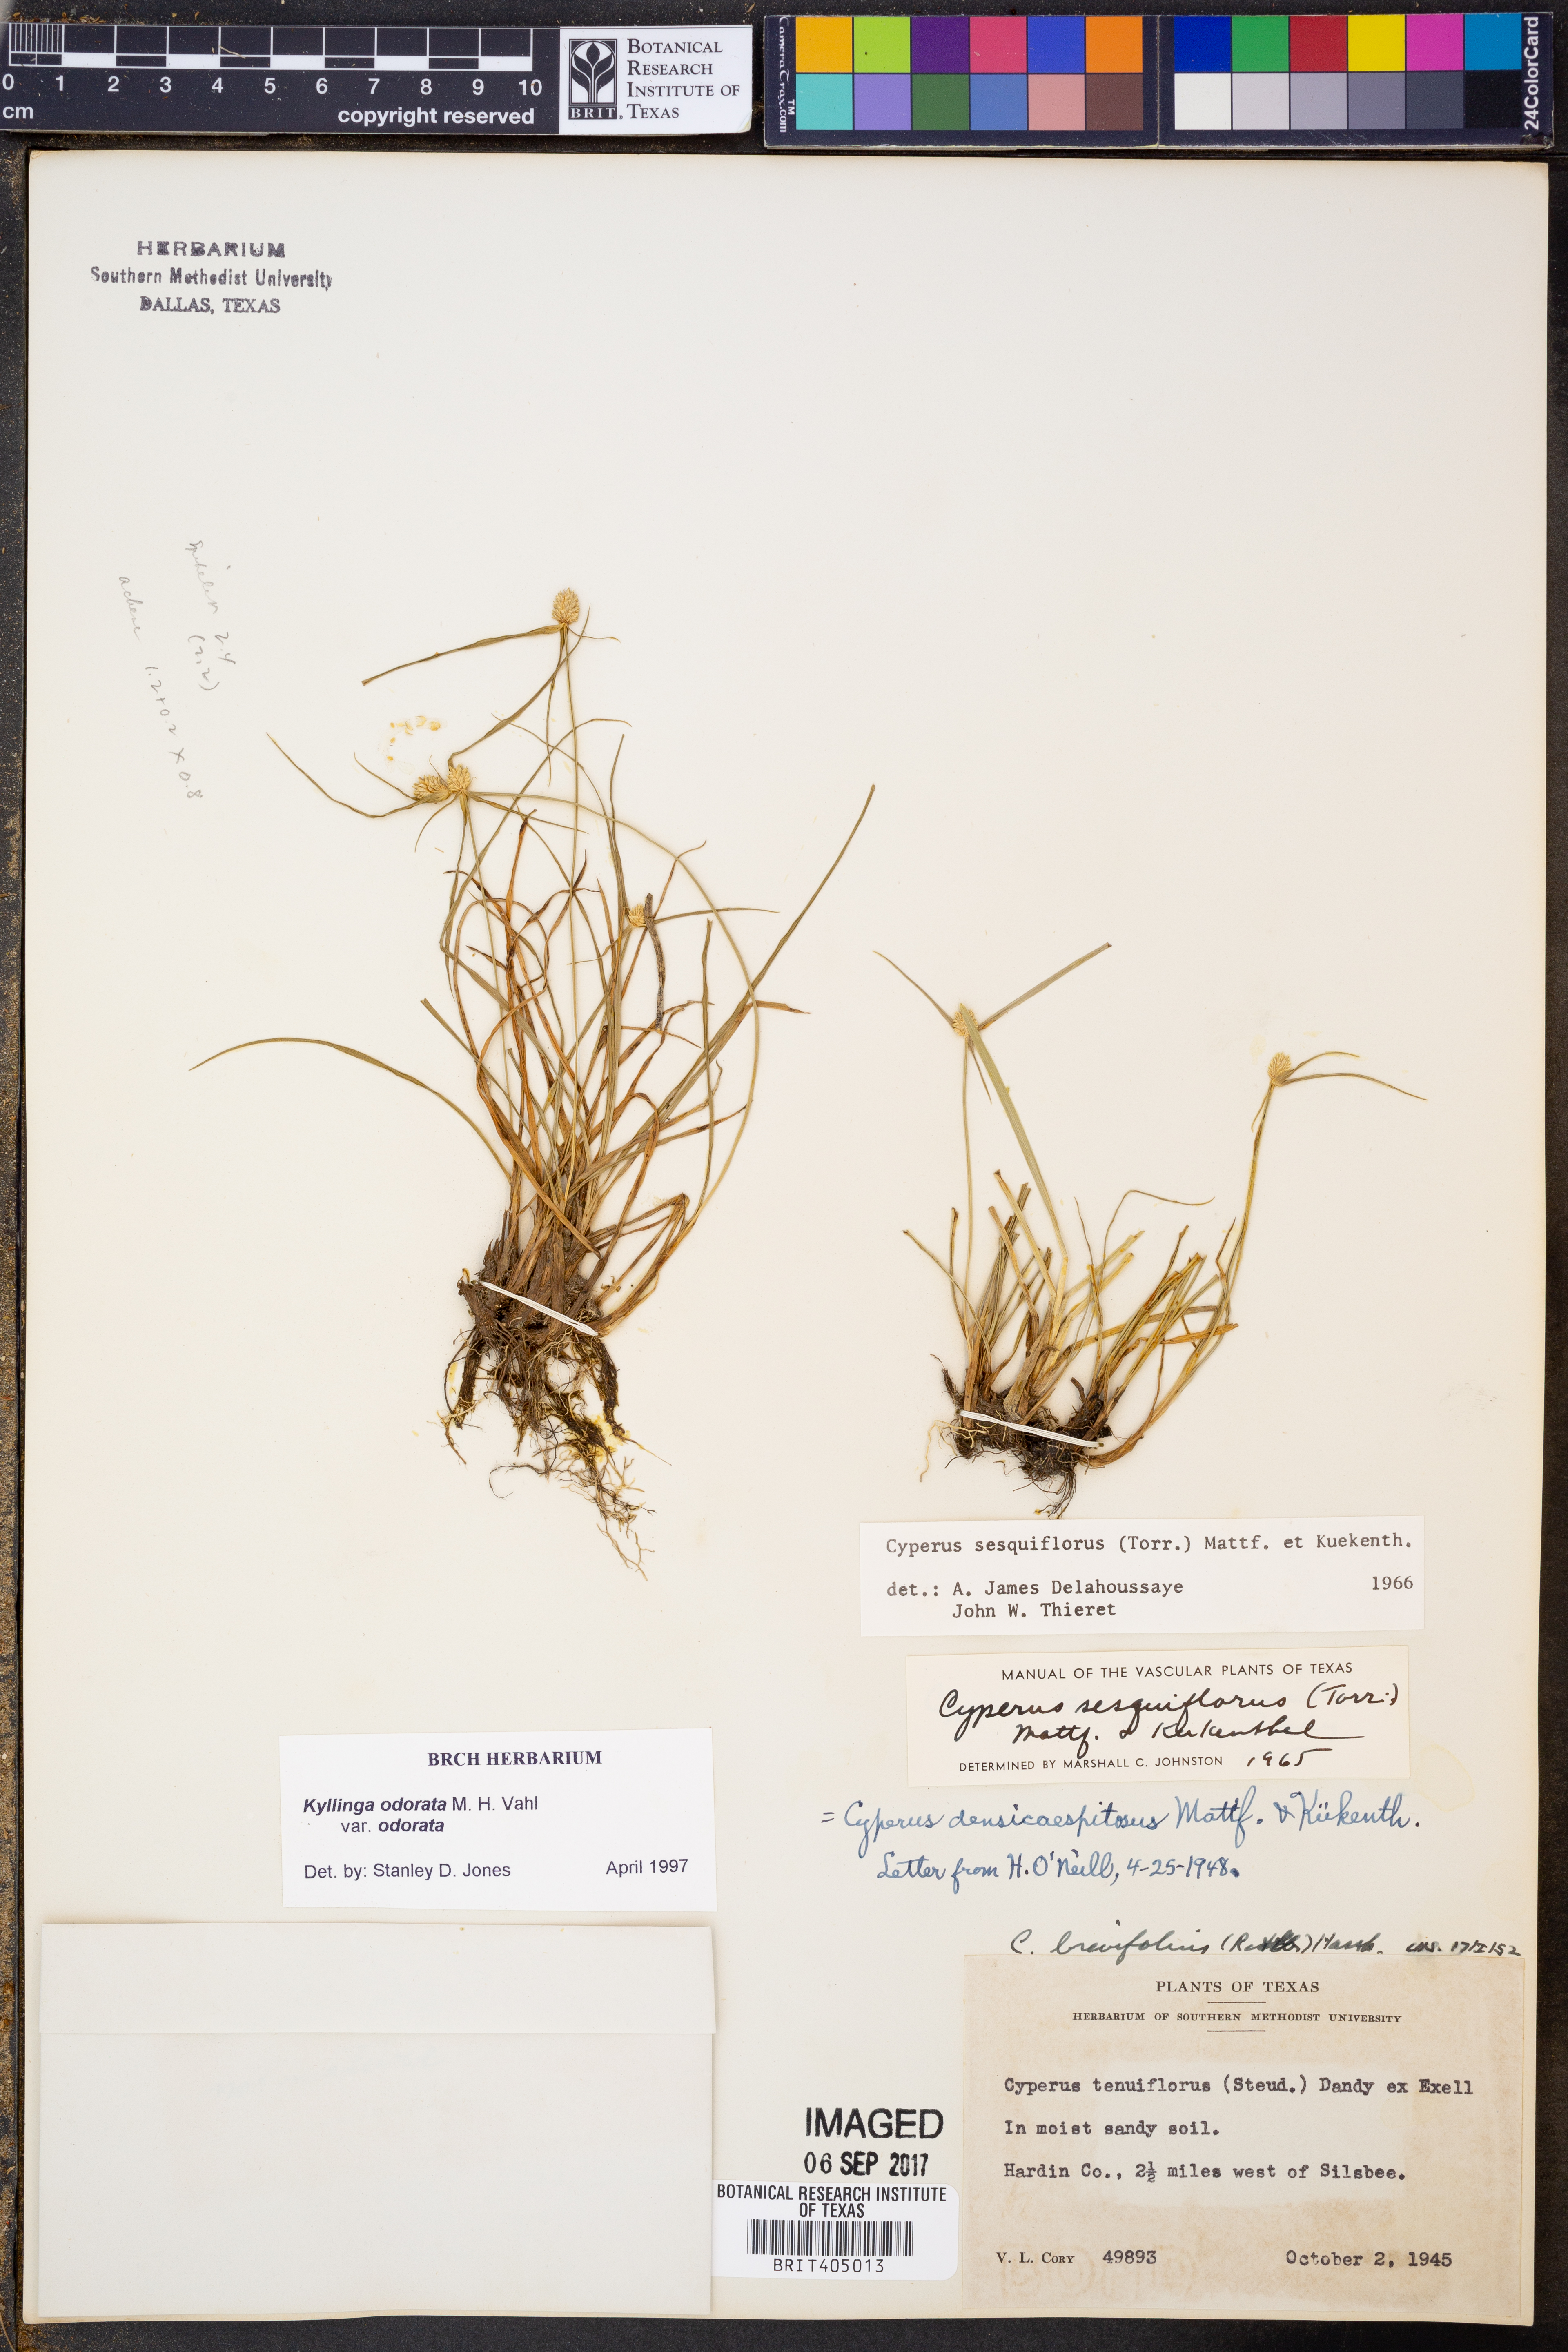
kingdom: Plantae
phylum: Tracheophyta
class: Liliopsida
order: Poales
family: Cyperaceae
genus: Cyperus
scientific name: Cyperus sesquiflorus
